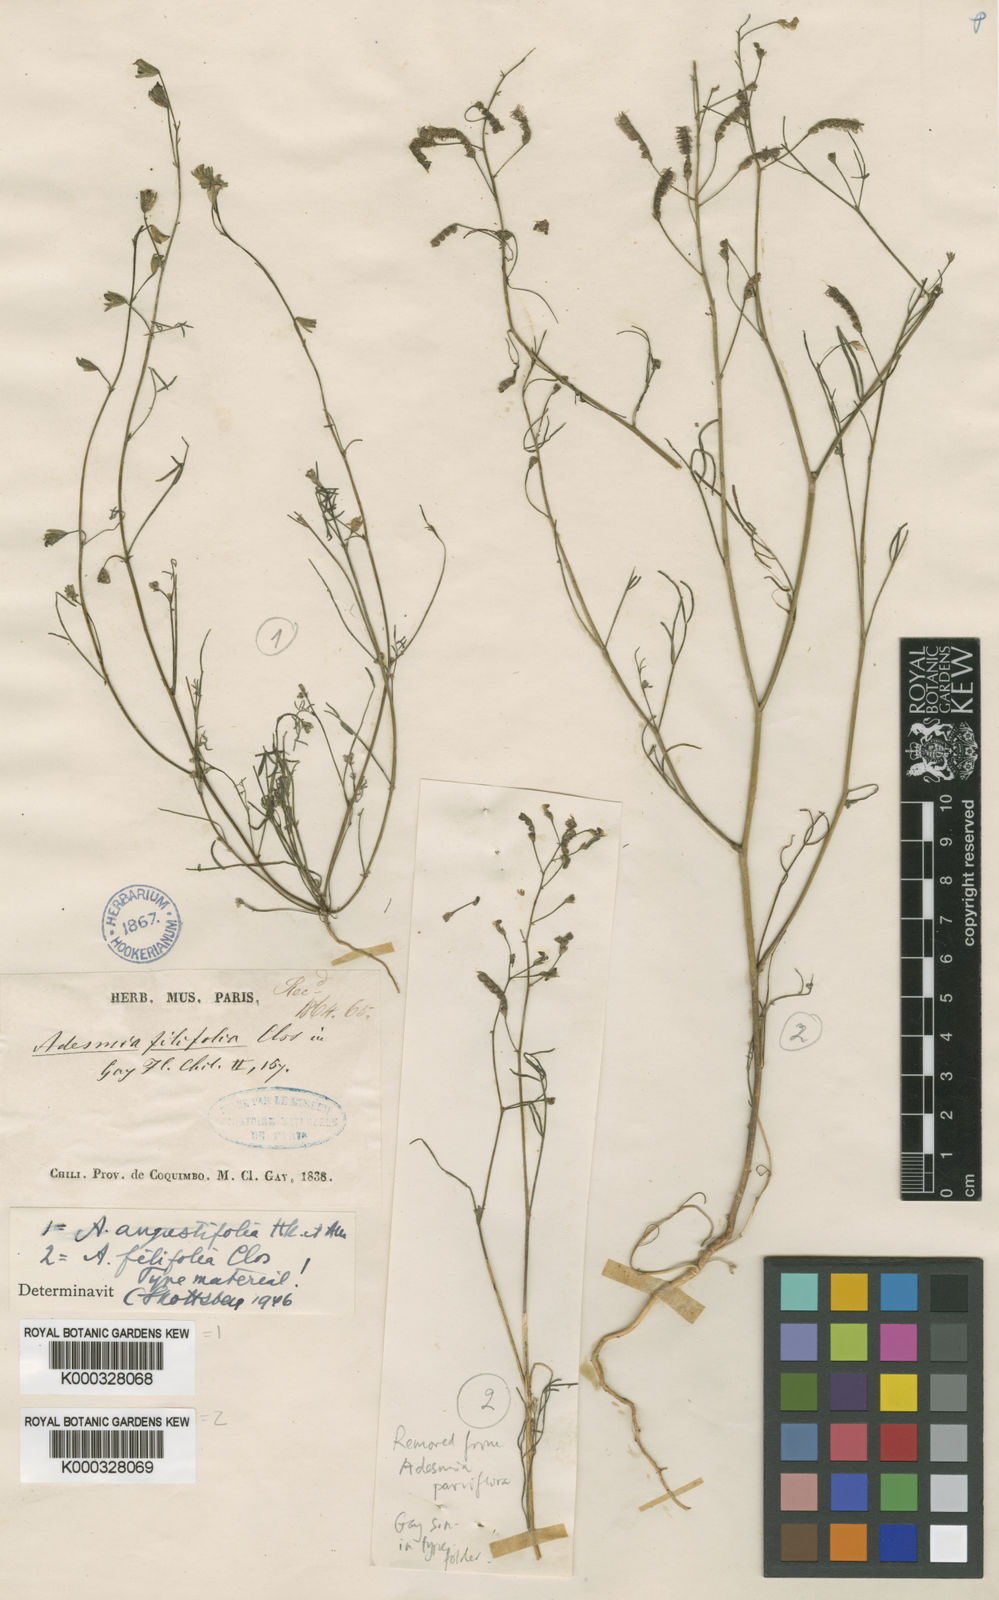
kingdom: Plantae
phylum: Tracheophyta
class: Magnoliopsida
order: Fabales
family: Fabaceae
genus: Adesmia
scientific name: Adesmia filifolia
